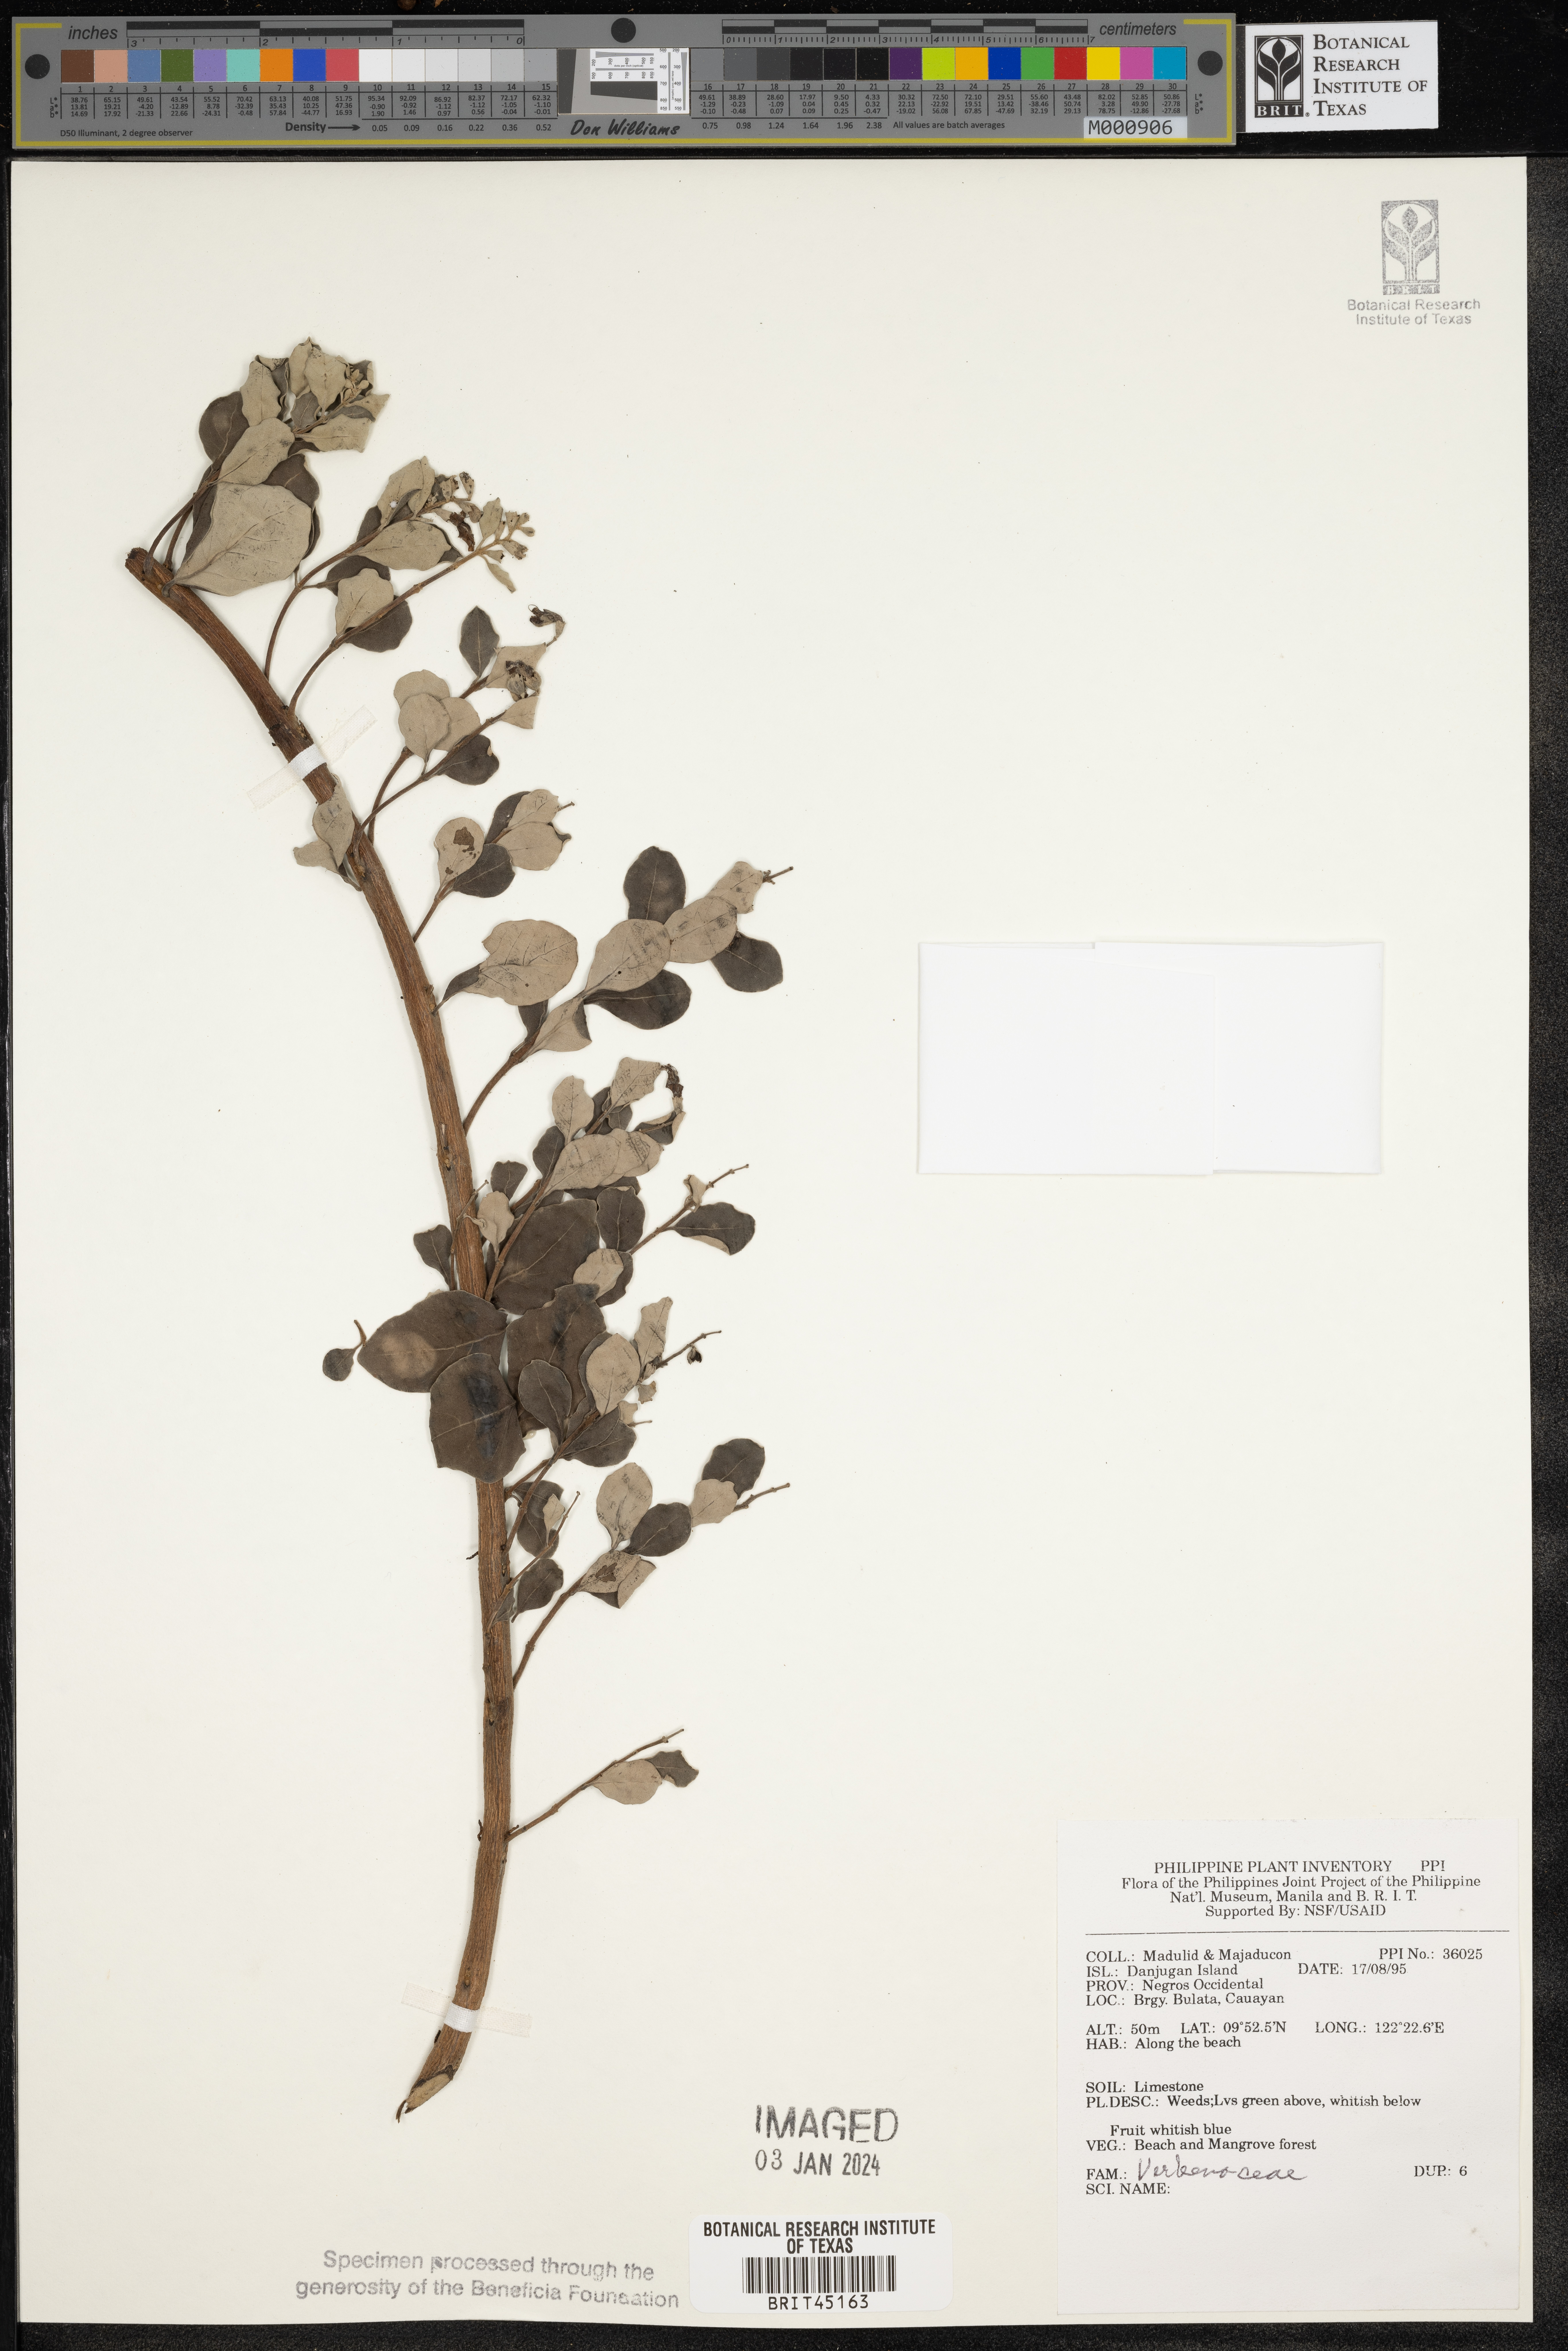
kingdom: Plantae
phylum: Tracheophyta
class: Magnoliopsida
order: Lamiales
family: Verbenaceae
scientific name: Verbenaceae
